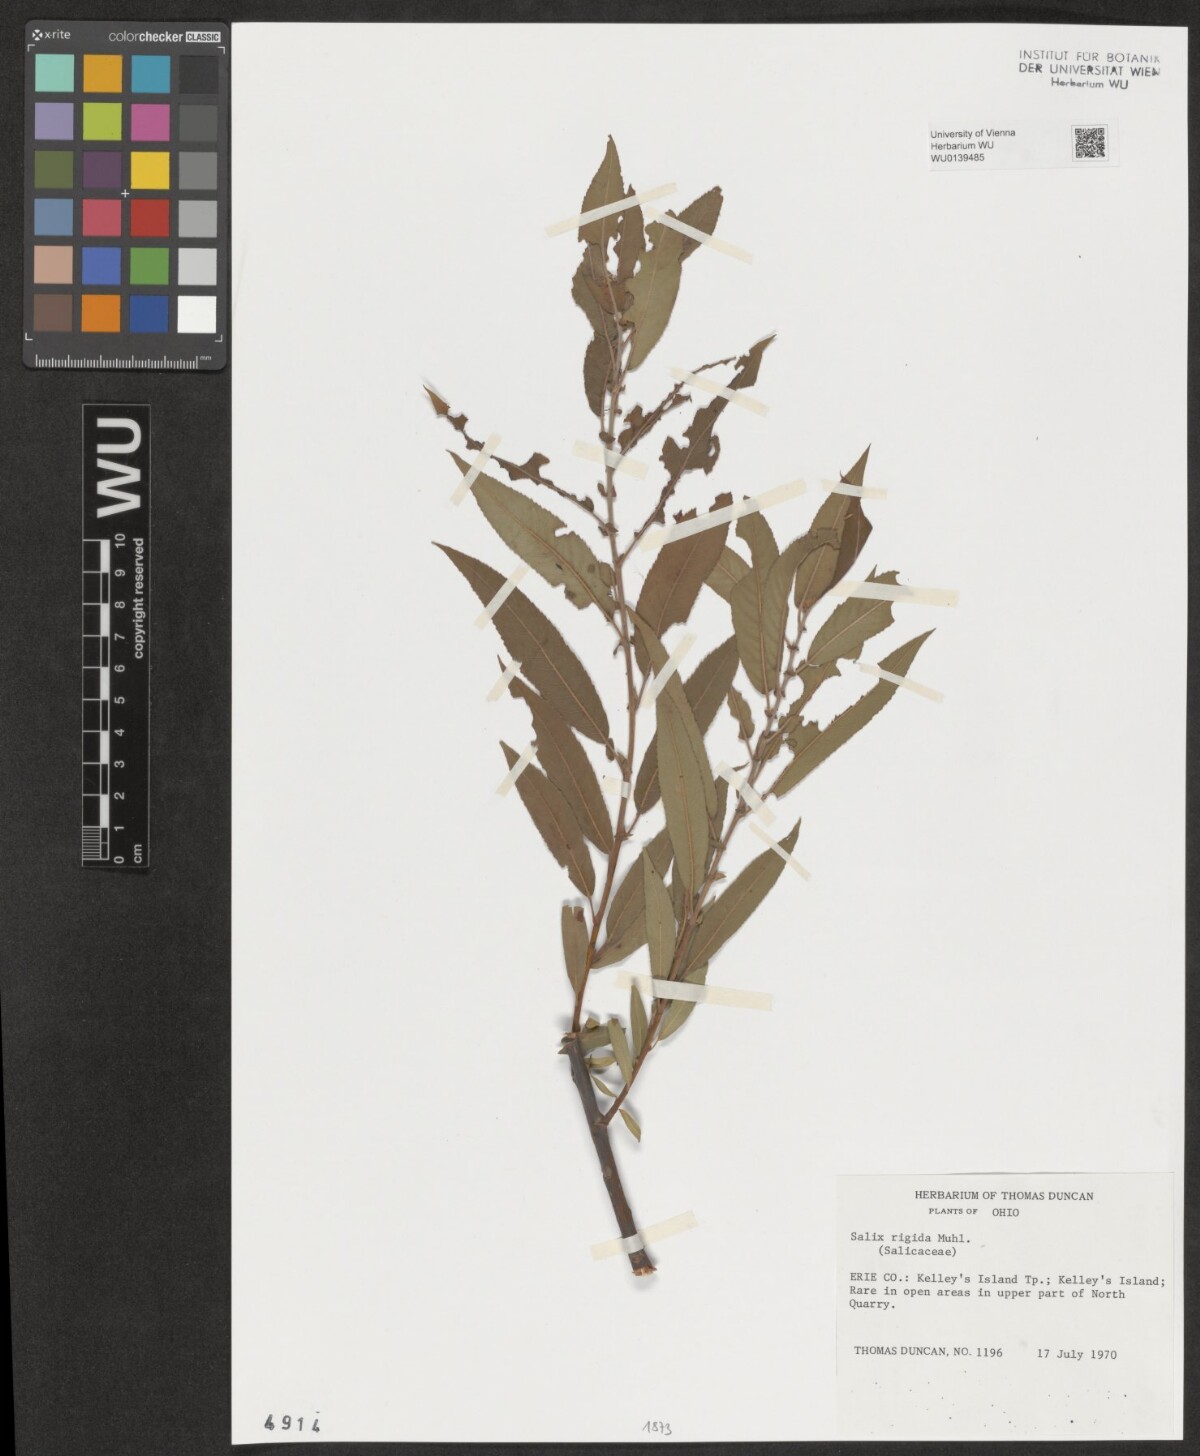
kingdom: Plantae
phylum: Tracheophyta
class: Magnoliopsida
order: Malpighiales
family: Salicaceae
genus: Salix
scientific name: Salix eriocephala
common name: Heart-leaved willow
